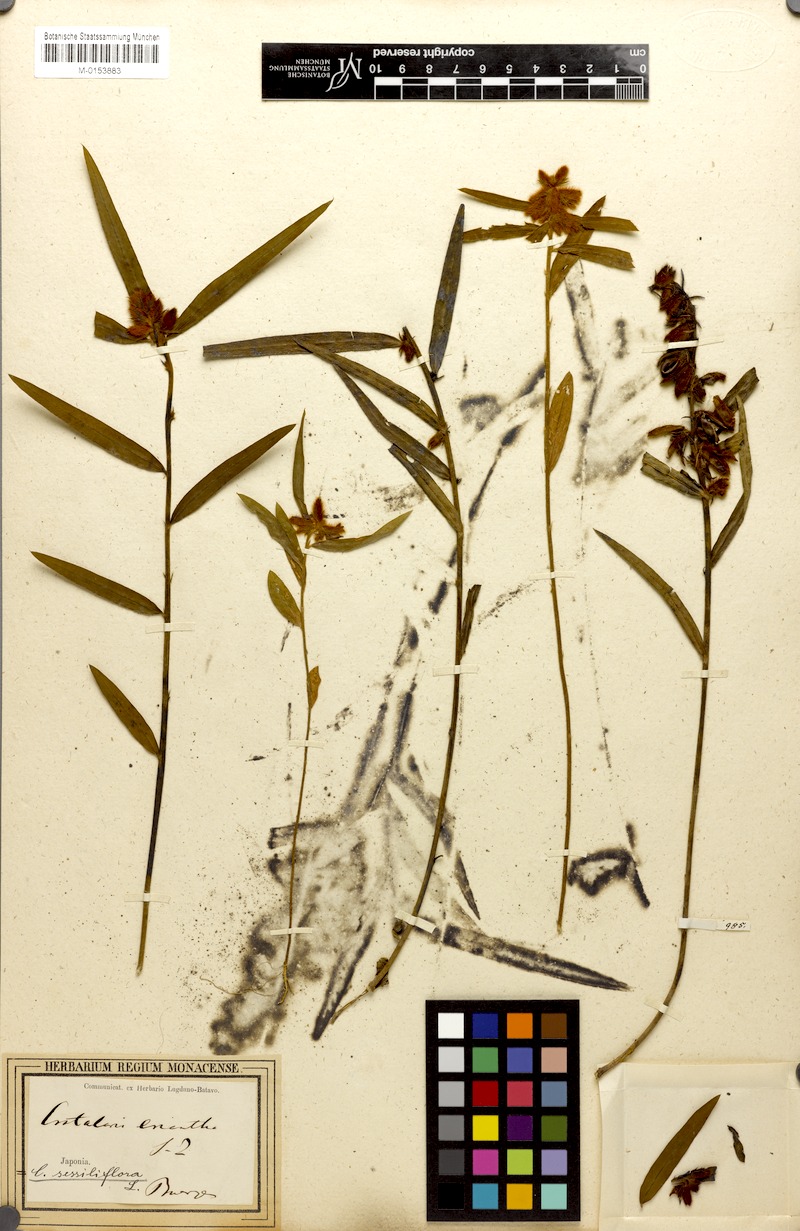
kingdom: Plantae
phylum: Tracheophyta
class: Magnoliopsida
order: Fabales
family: Fabaceae
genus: Crotalaria
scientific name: Crotalaria sessiliflora
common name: Rattlebox
